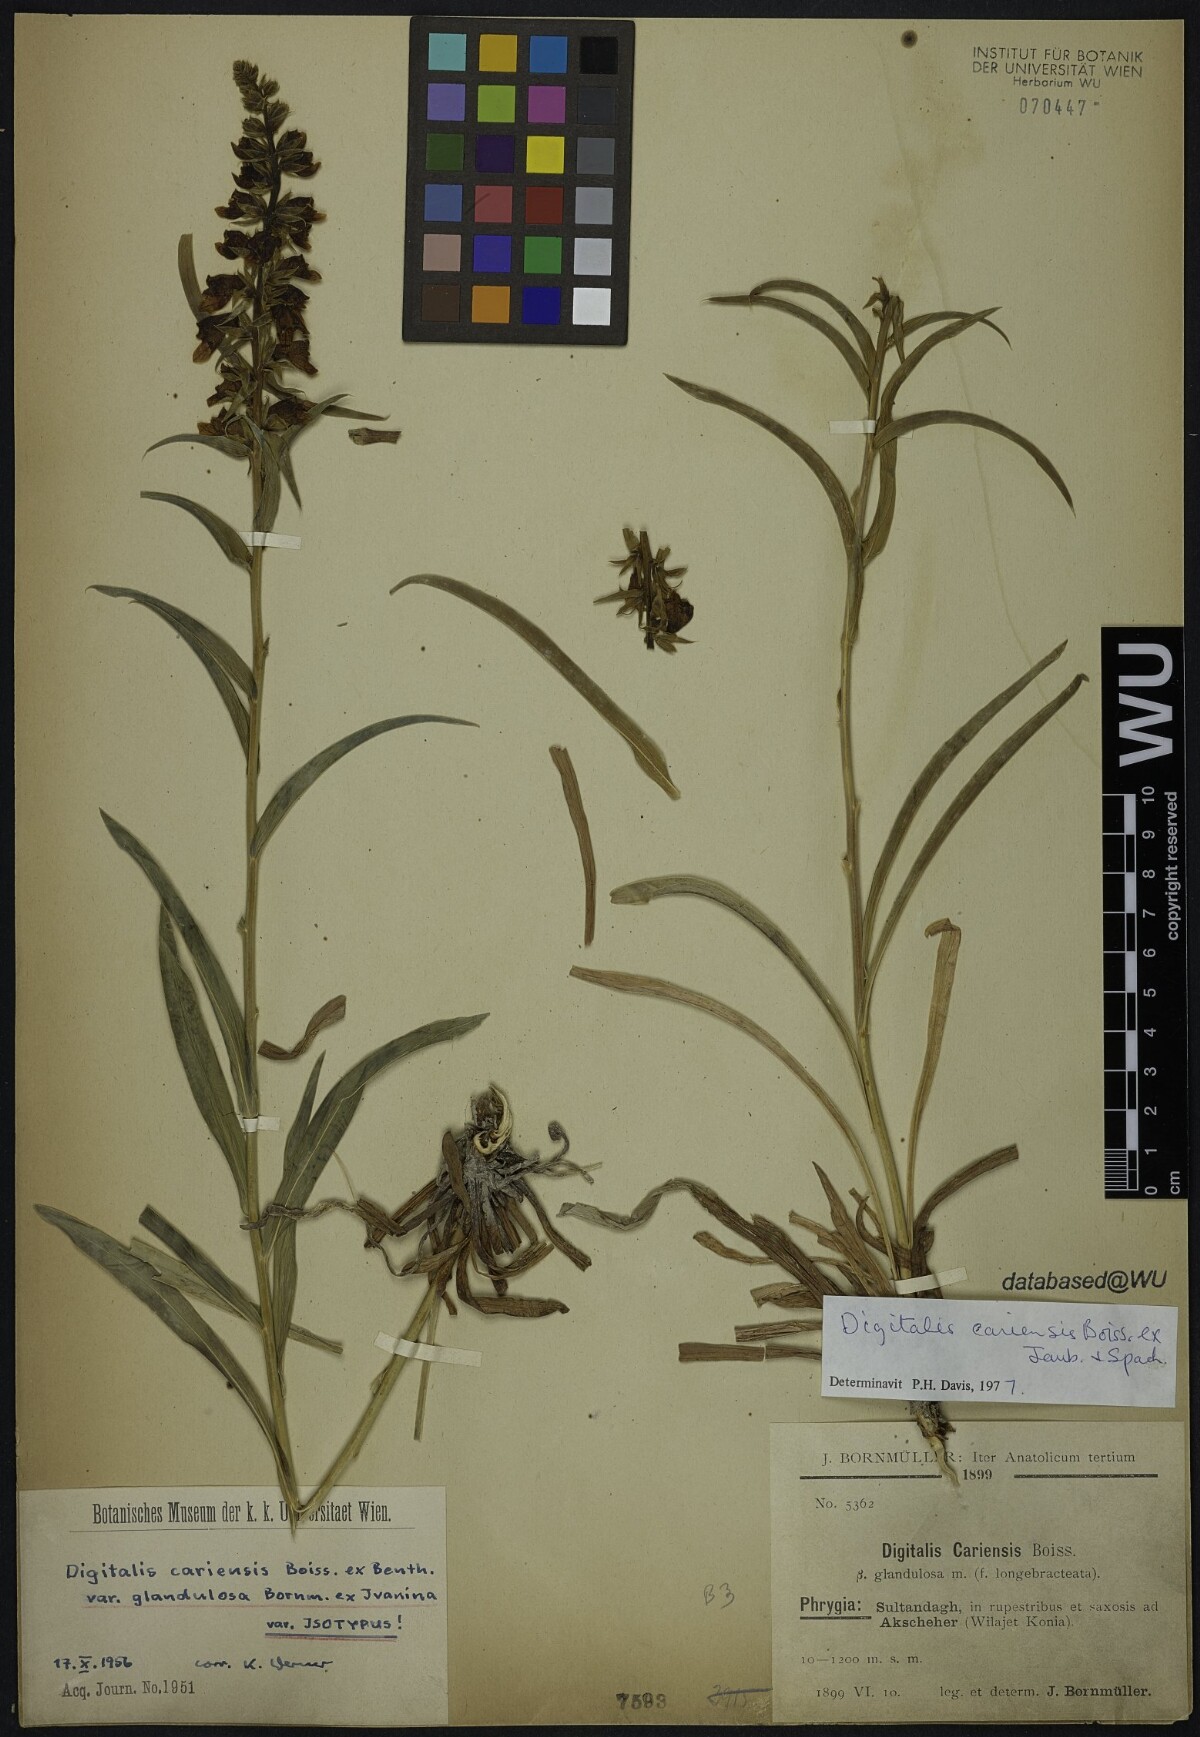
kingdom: Plantae
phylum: Tracheophyta
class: Magnoliopsida
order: Lamiales
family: Plantaginaceae
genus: Digitalis
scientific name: Digitalis cariensis
